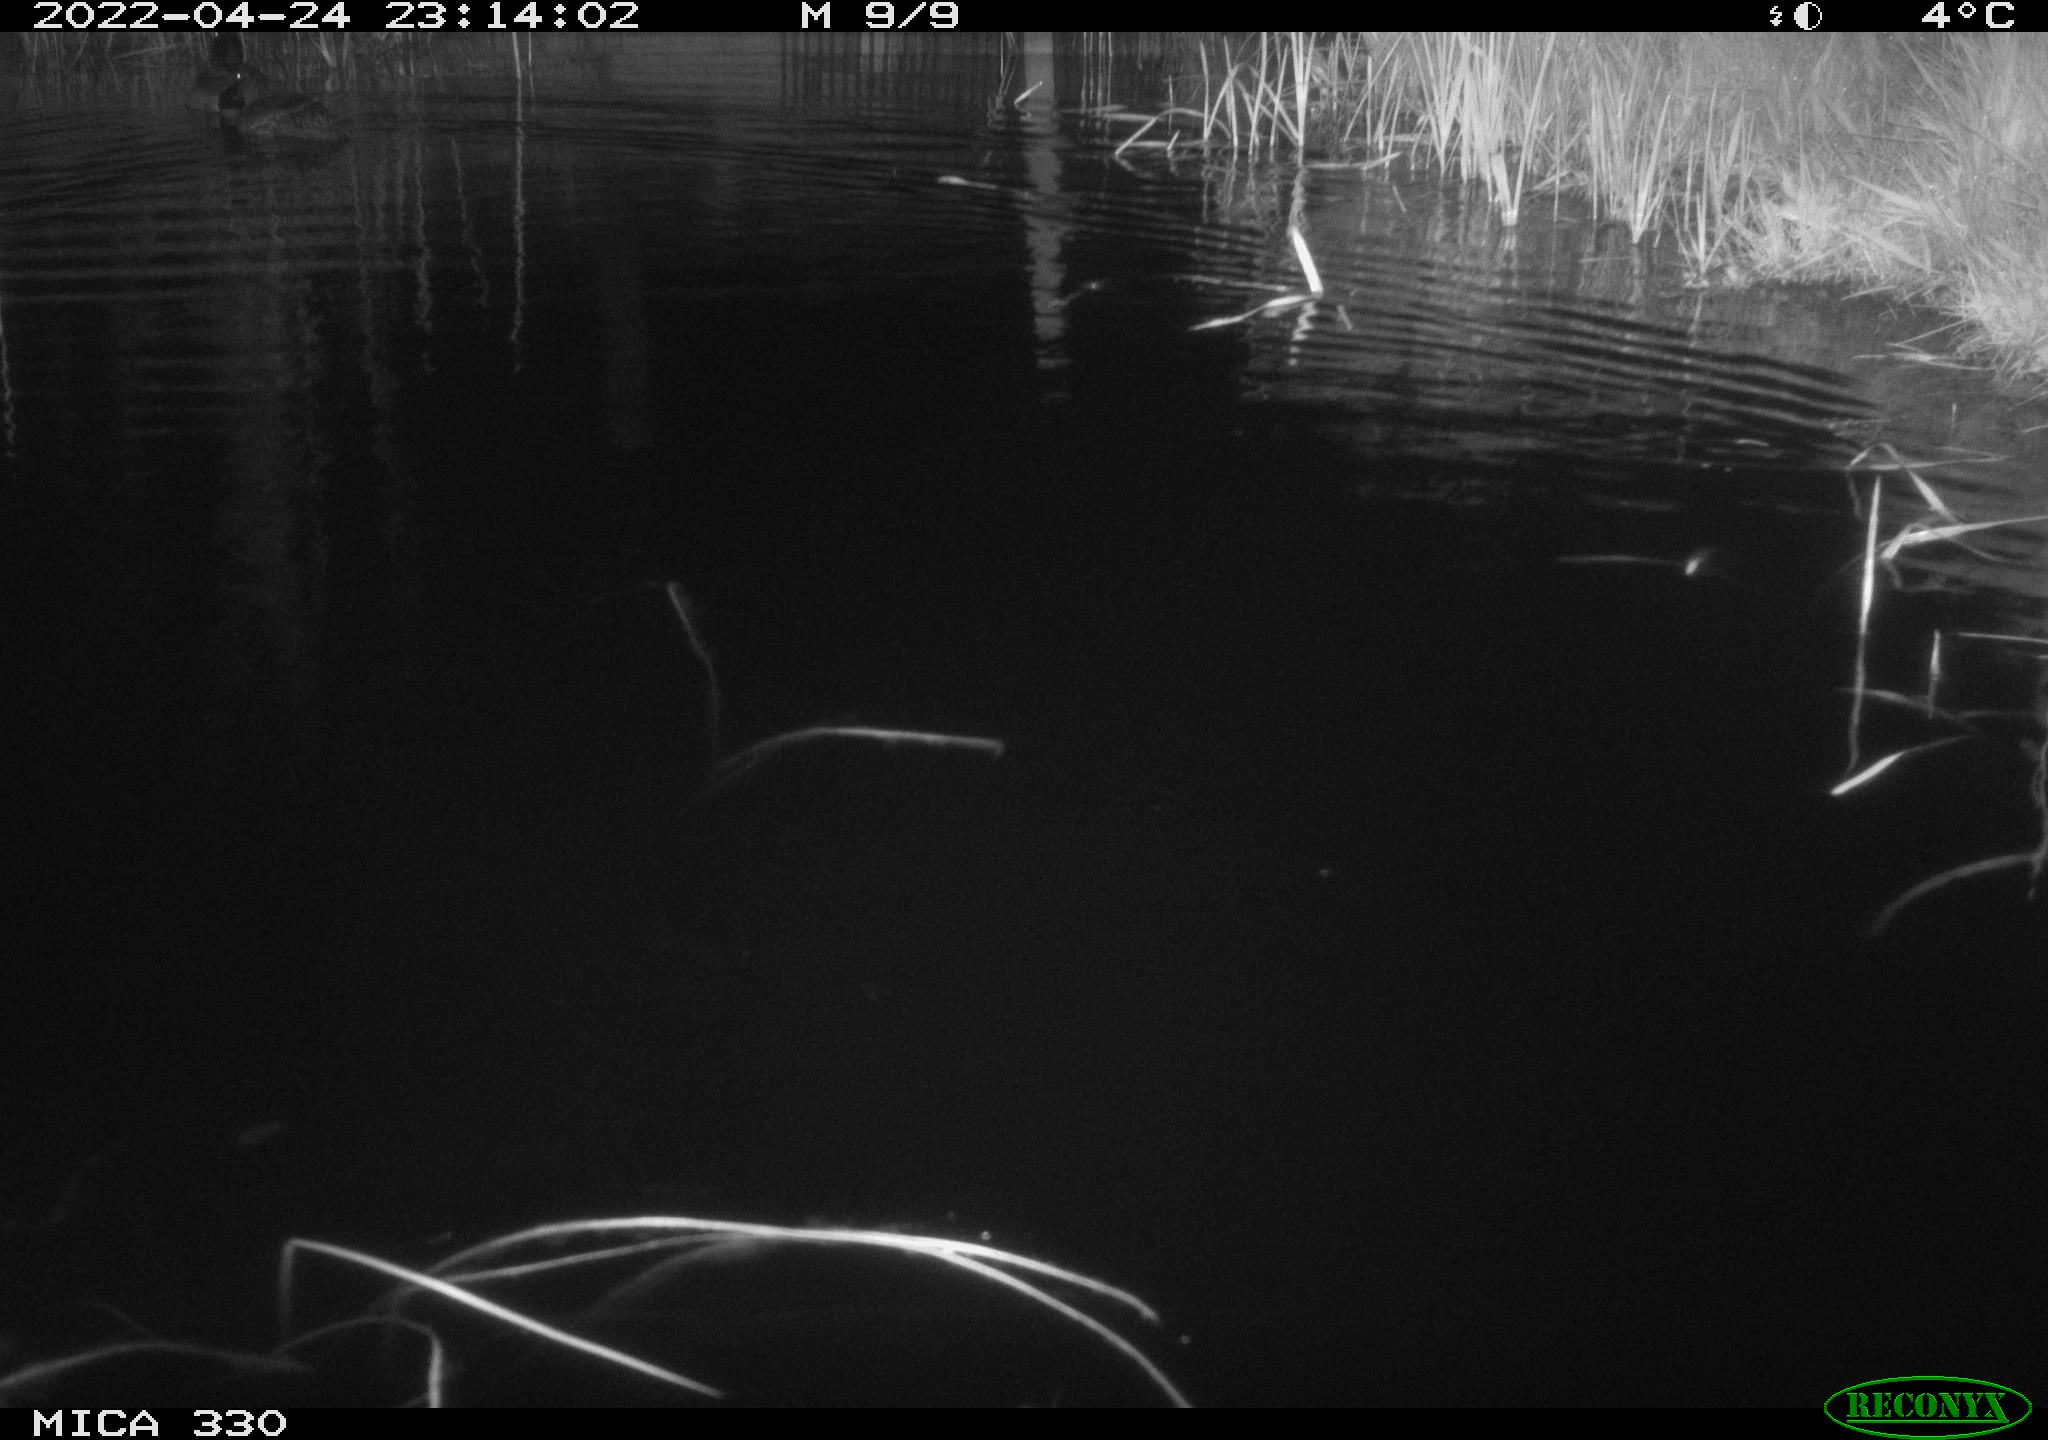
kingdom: Animalia
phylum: Chordata
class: Aves
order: Anseriformes
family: Anatidae
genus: Anas
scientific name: Anas platyrhynchos
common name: Mallard
